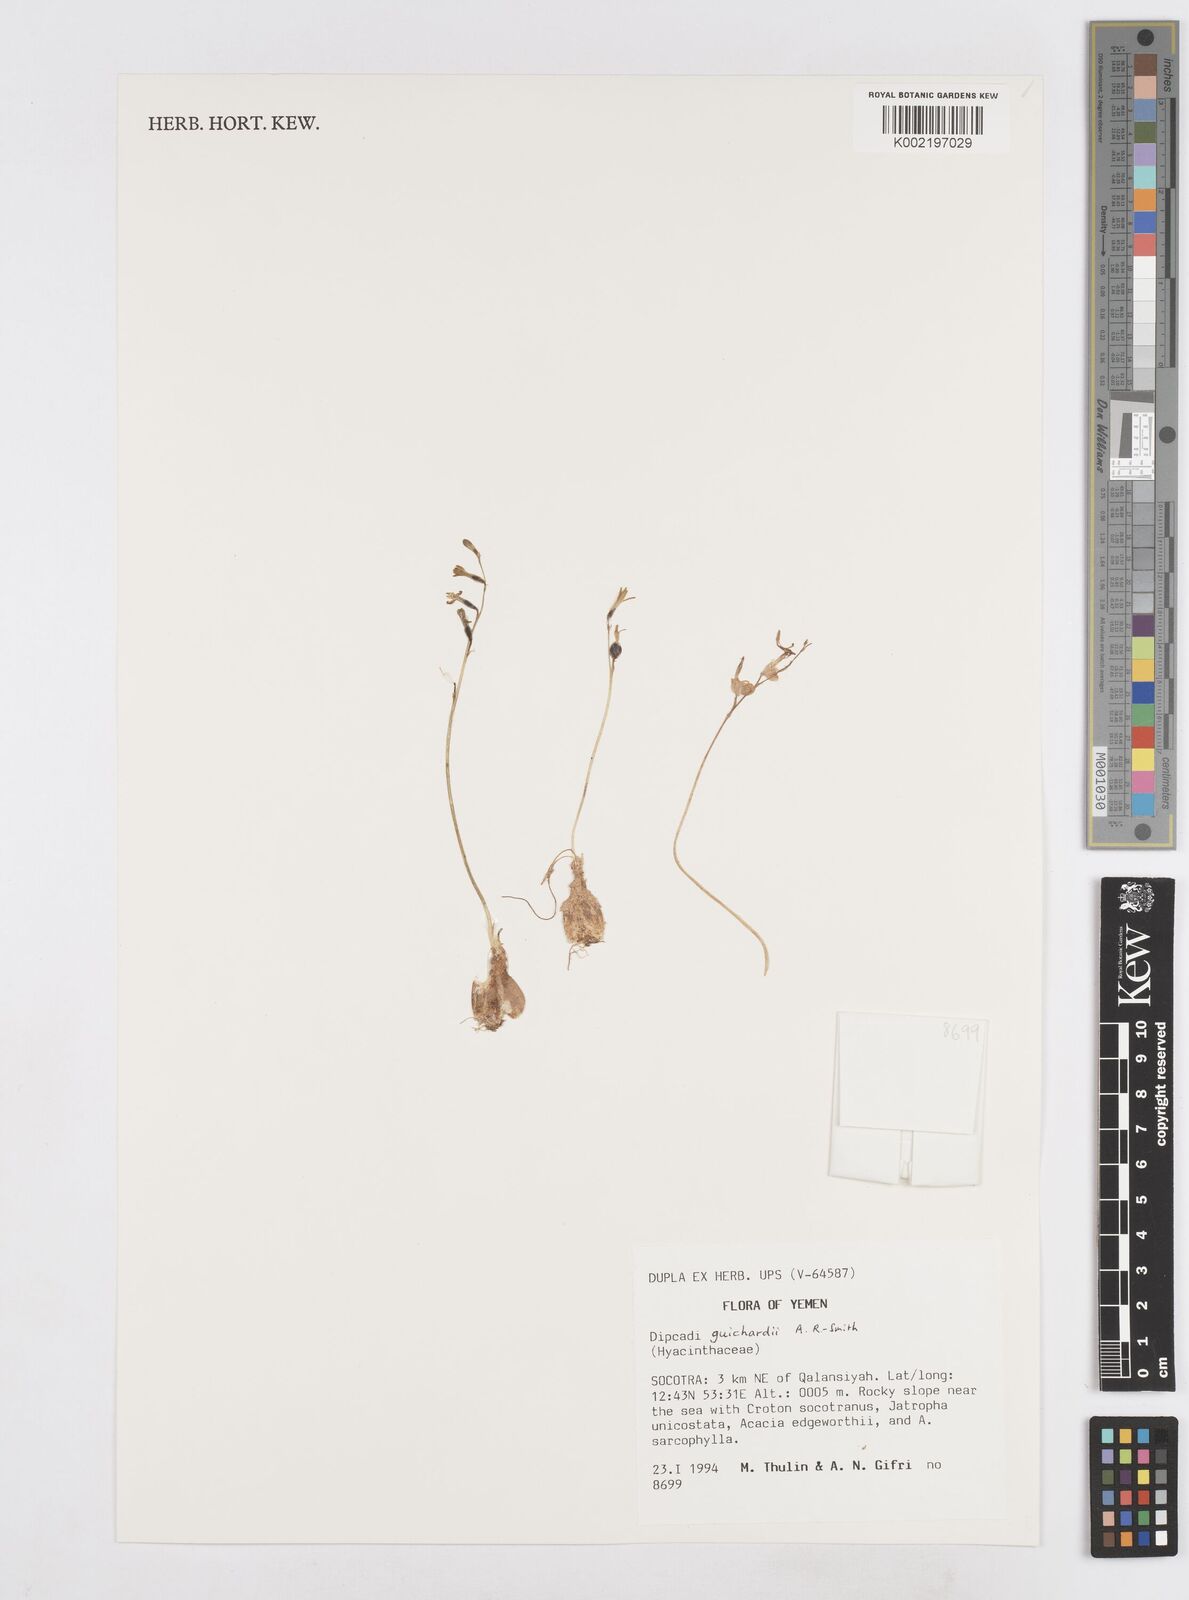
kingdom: Plantae
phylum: Tracheophyta
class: Liliopsida
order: Asparagales
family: Asparagaceae
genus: Dipcadi
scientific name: Dipcadi guichardii
